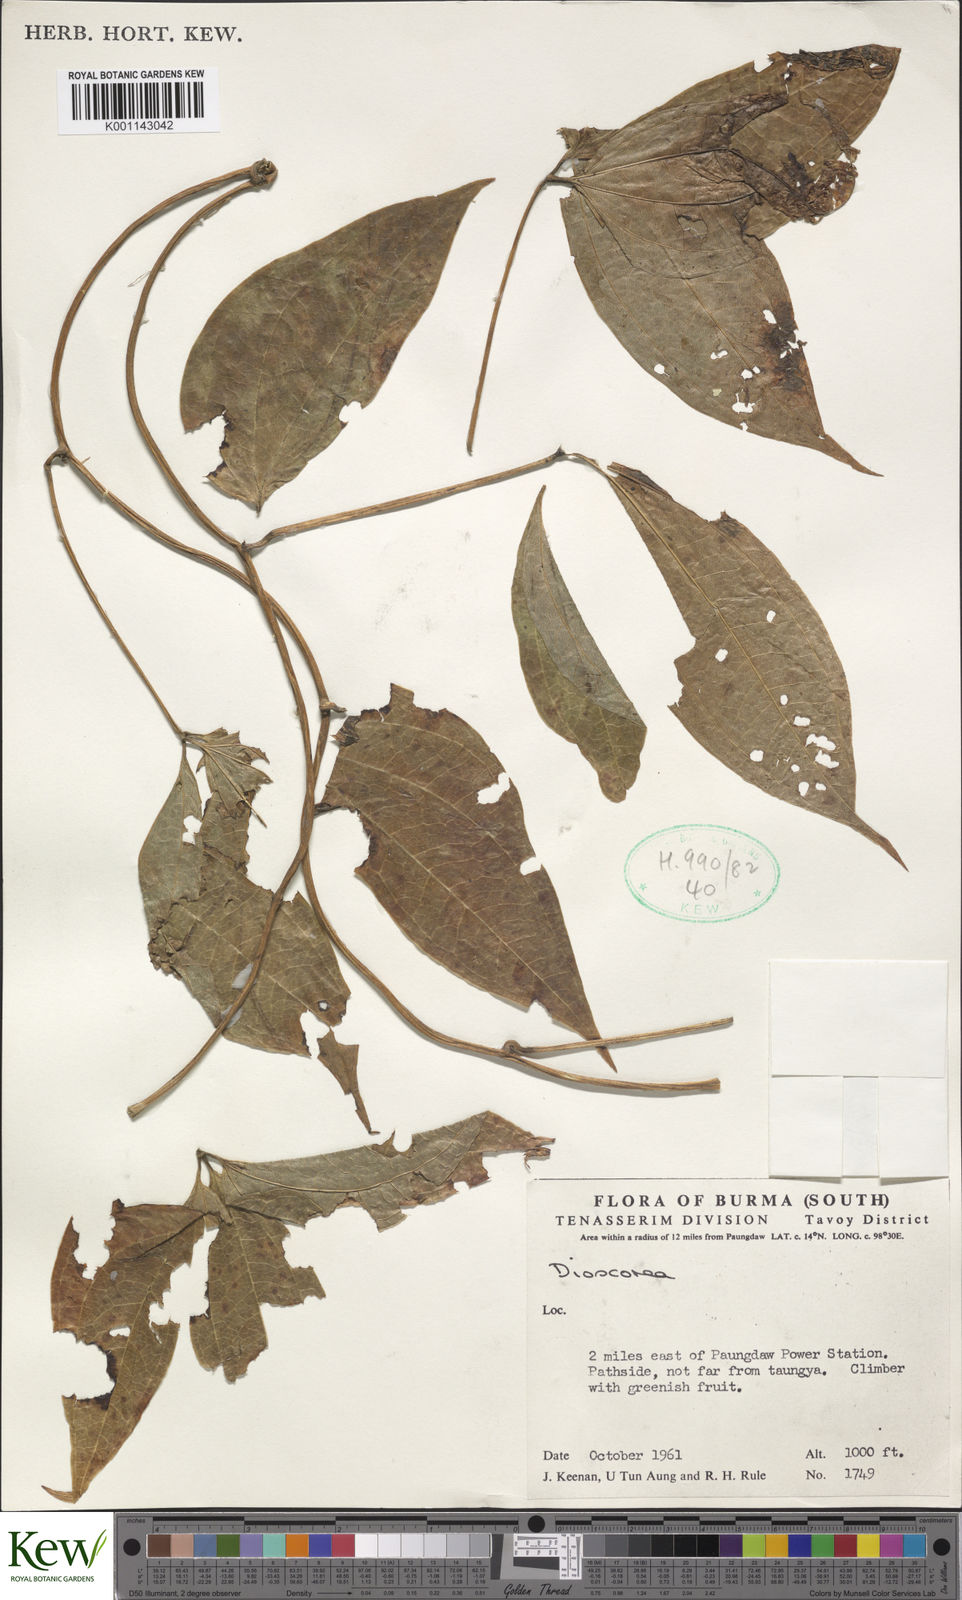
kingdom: Plantae
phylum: Tracheophyta
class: Liliopsida
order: Dioscoreales
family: Dioscoreaceae
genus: Dioscorea
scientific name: Dioscorea
